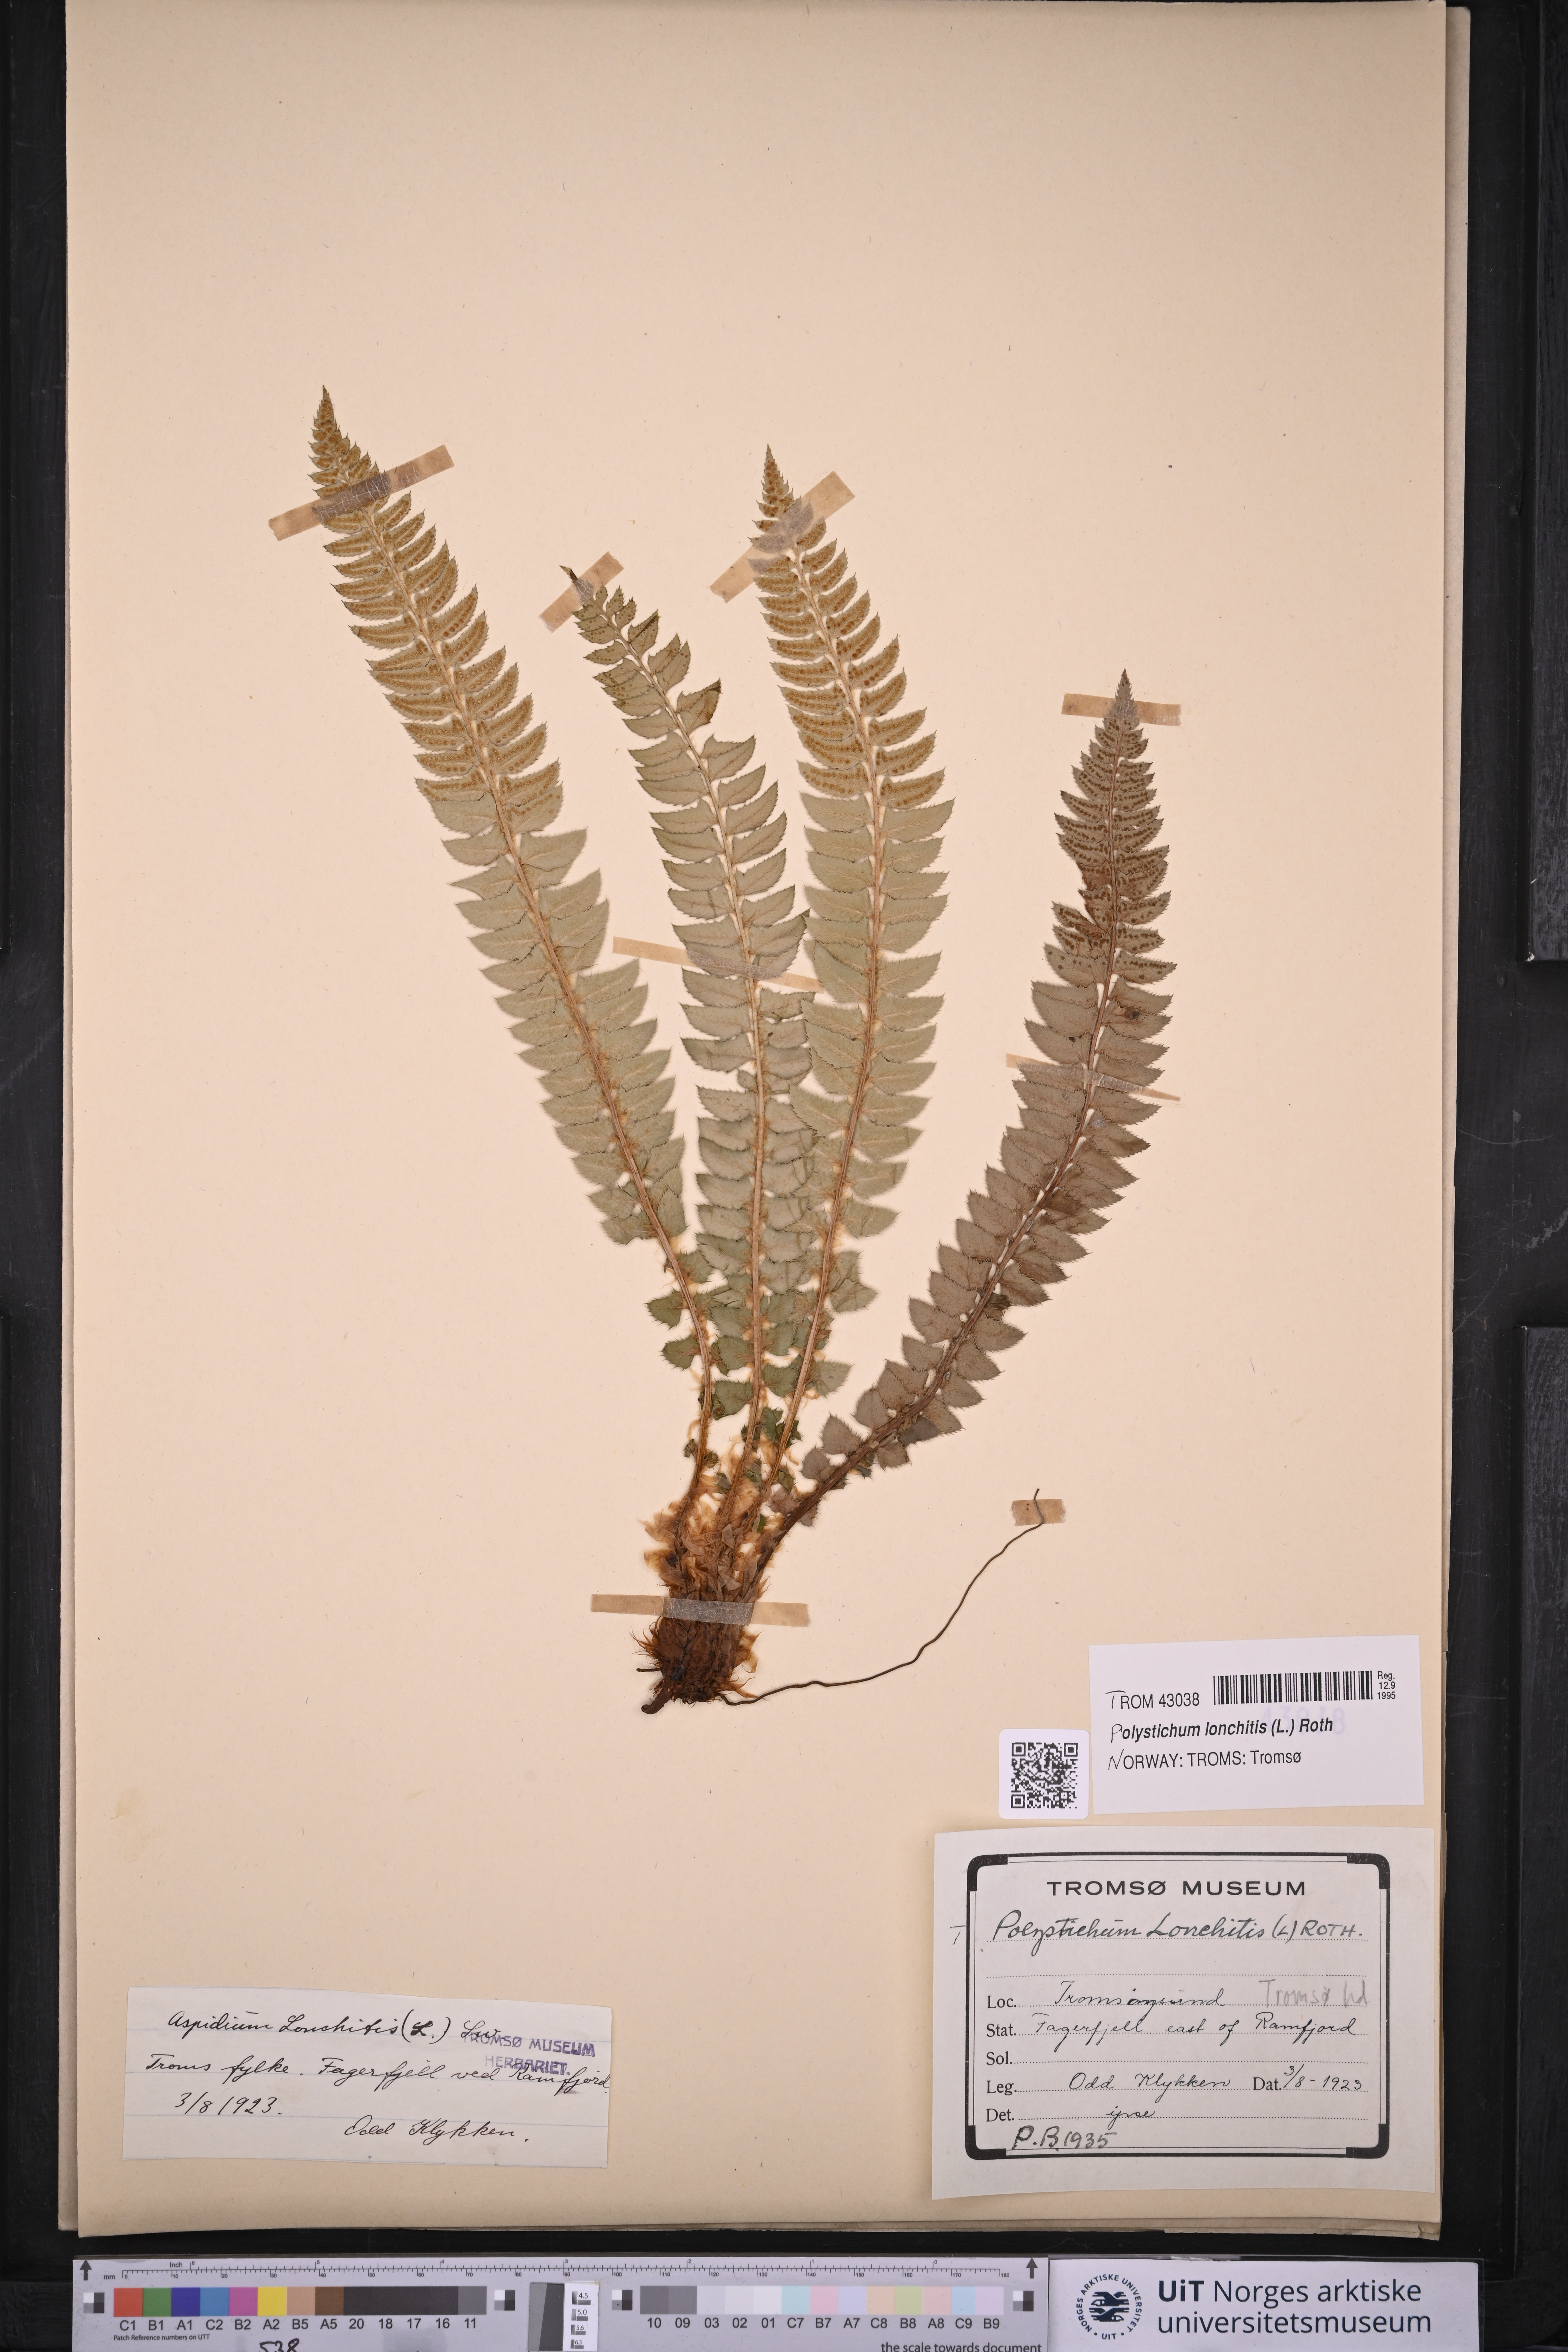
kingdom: Plantae
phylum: Tracheophyta
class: Polypodiopsida
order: Polypodiales
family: Dryopteridaceae
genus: Polystichum
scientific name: Polystichum lonchitis
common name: Holly fern
